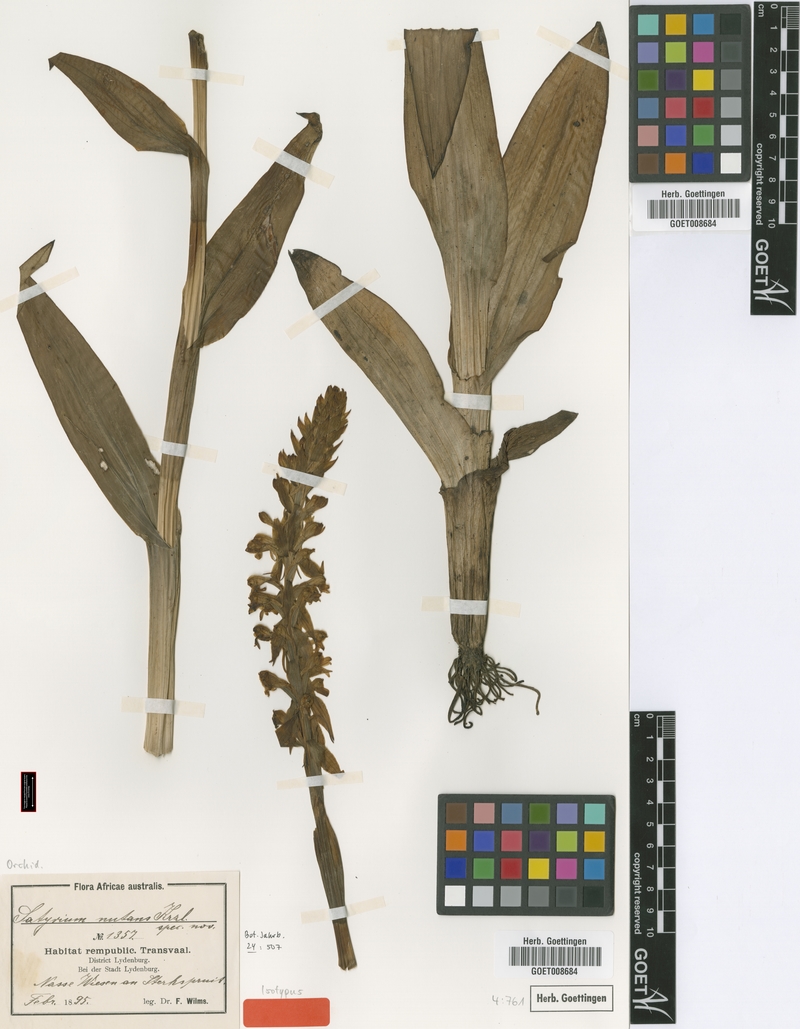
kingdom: Plantae
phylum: Tracheophyta
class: Liliopsida
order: Asparagales
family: Orchidaceae
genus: Satyrium
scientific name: Satyrium hallackii
